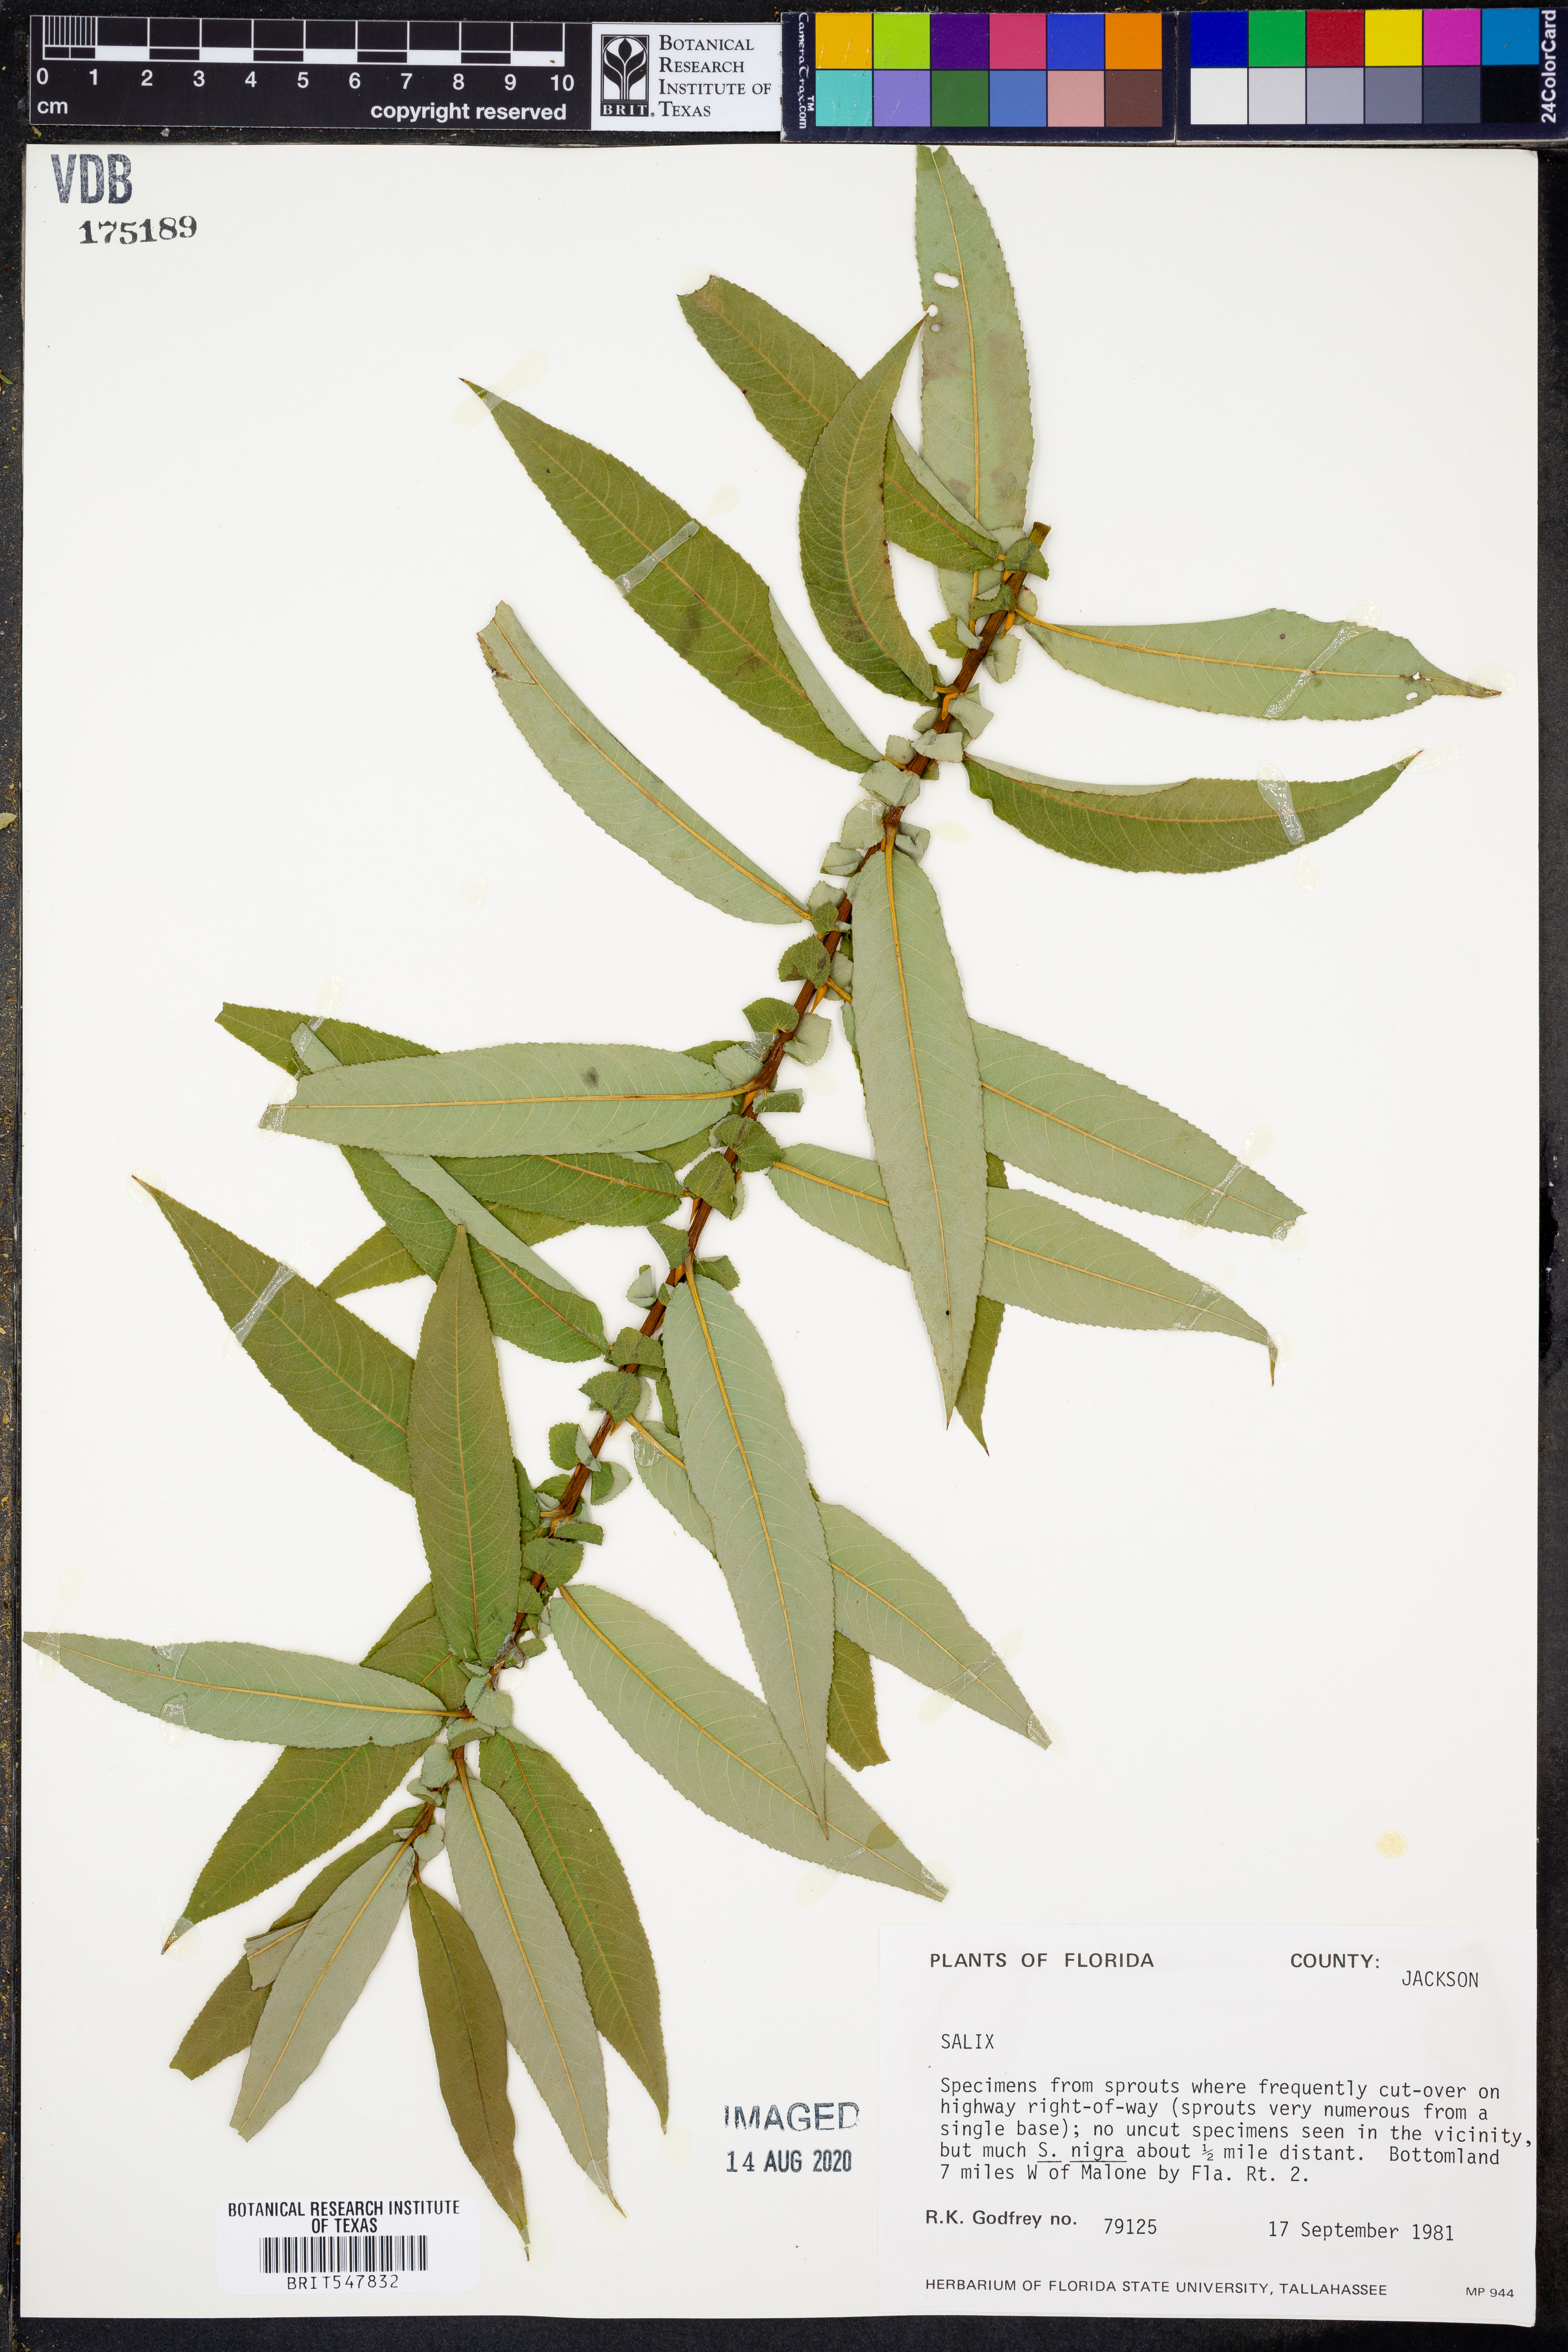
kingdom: Plantae
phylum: Tracheophyta
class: Magnoliopsida
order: Malpighiales
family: Salicaceae
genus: Salix
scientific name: Salix
